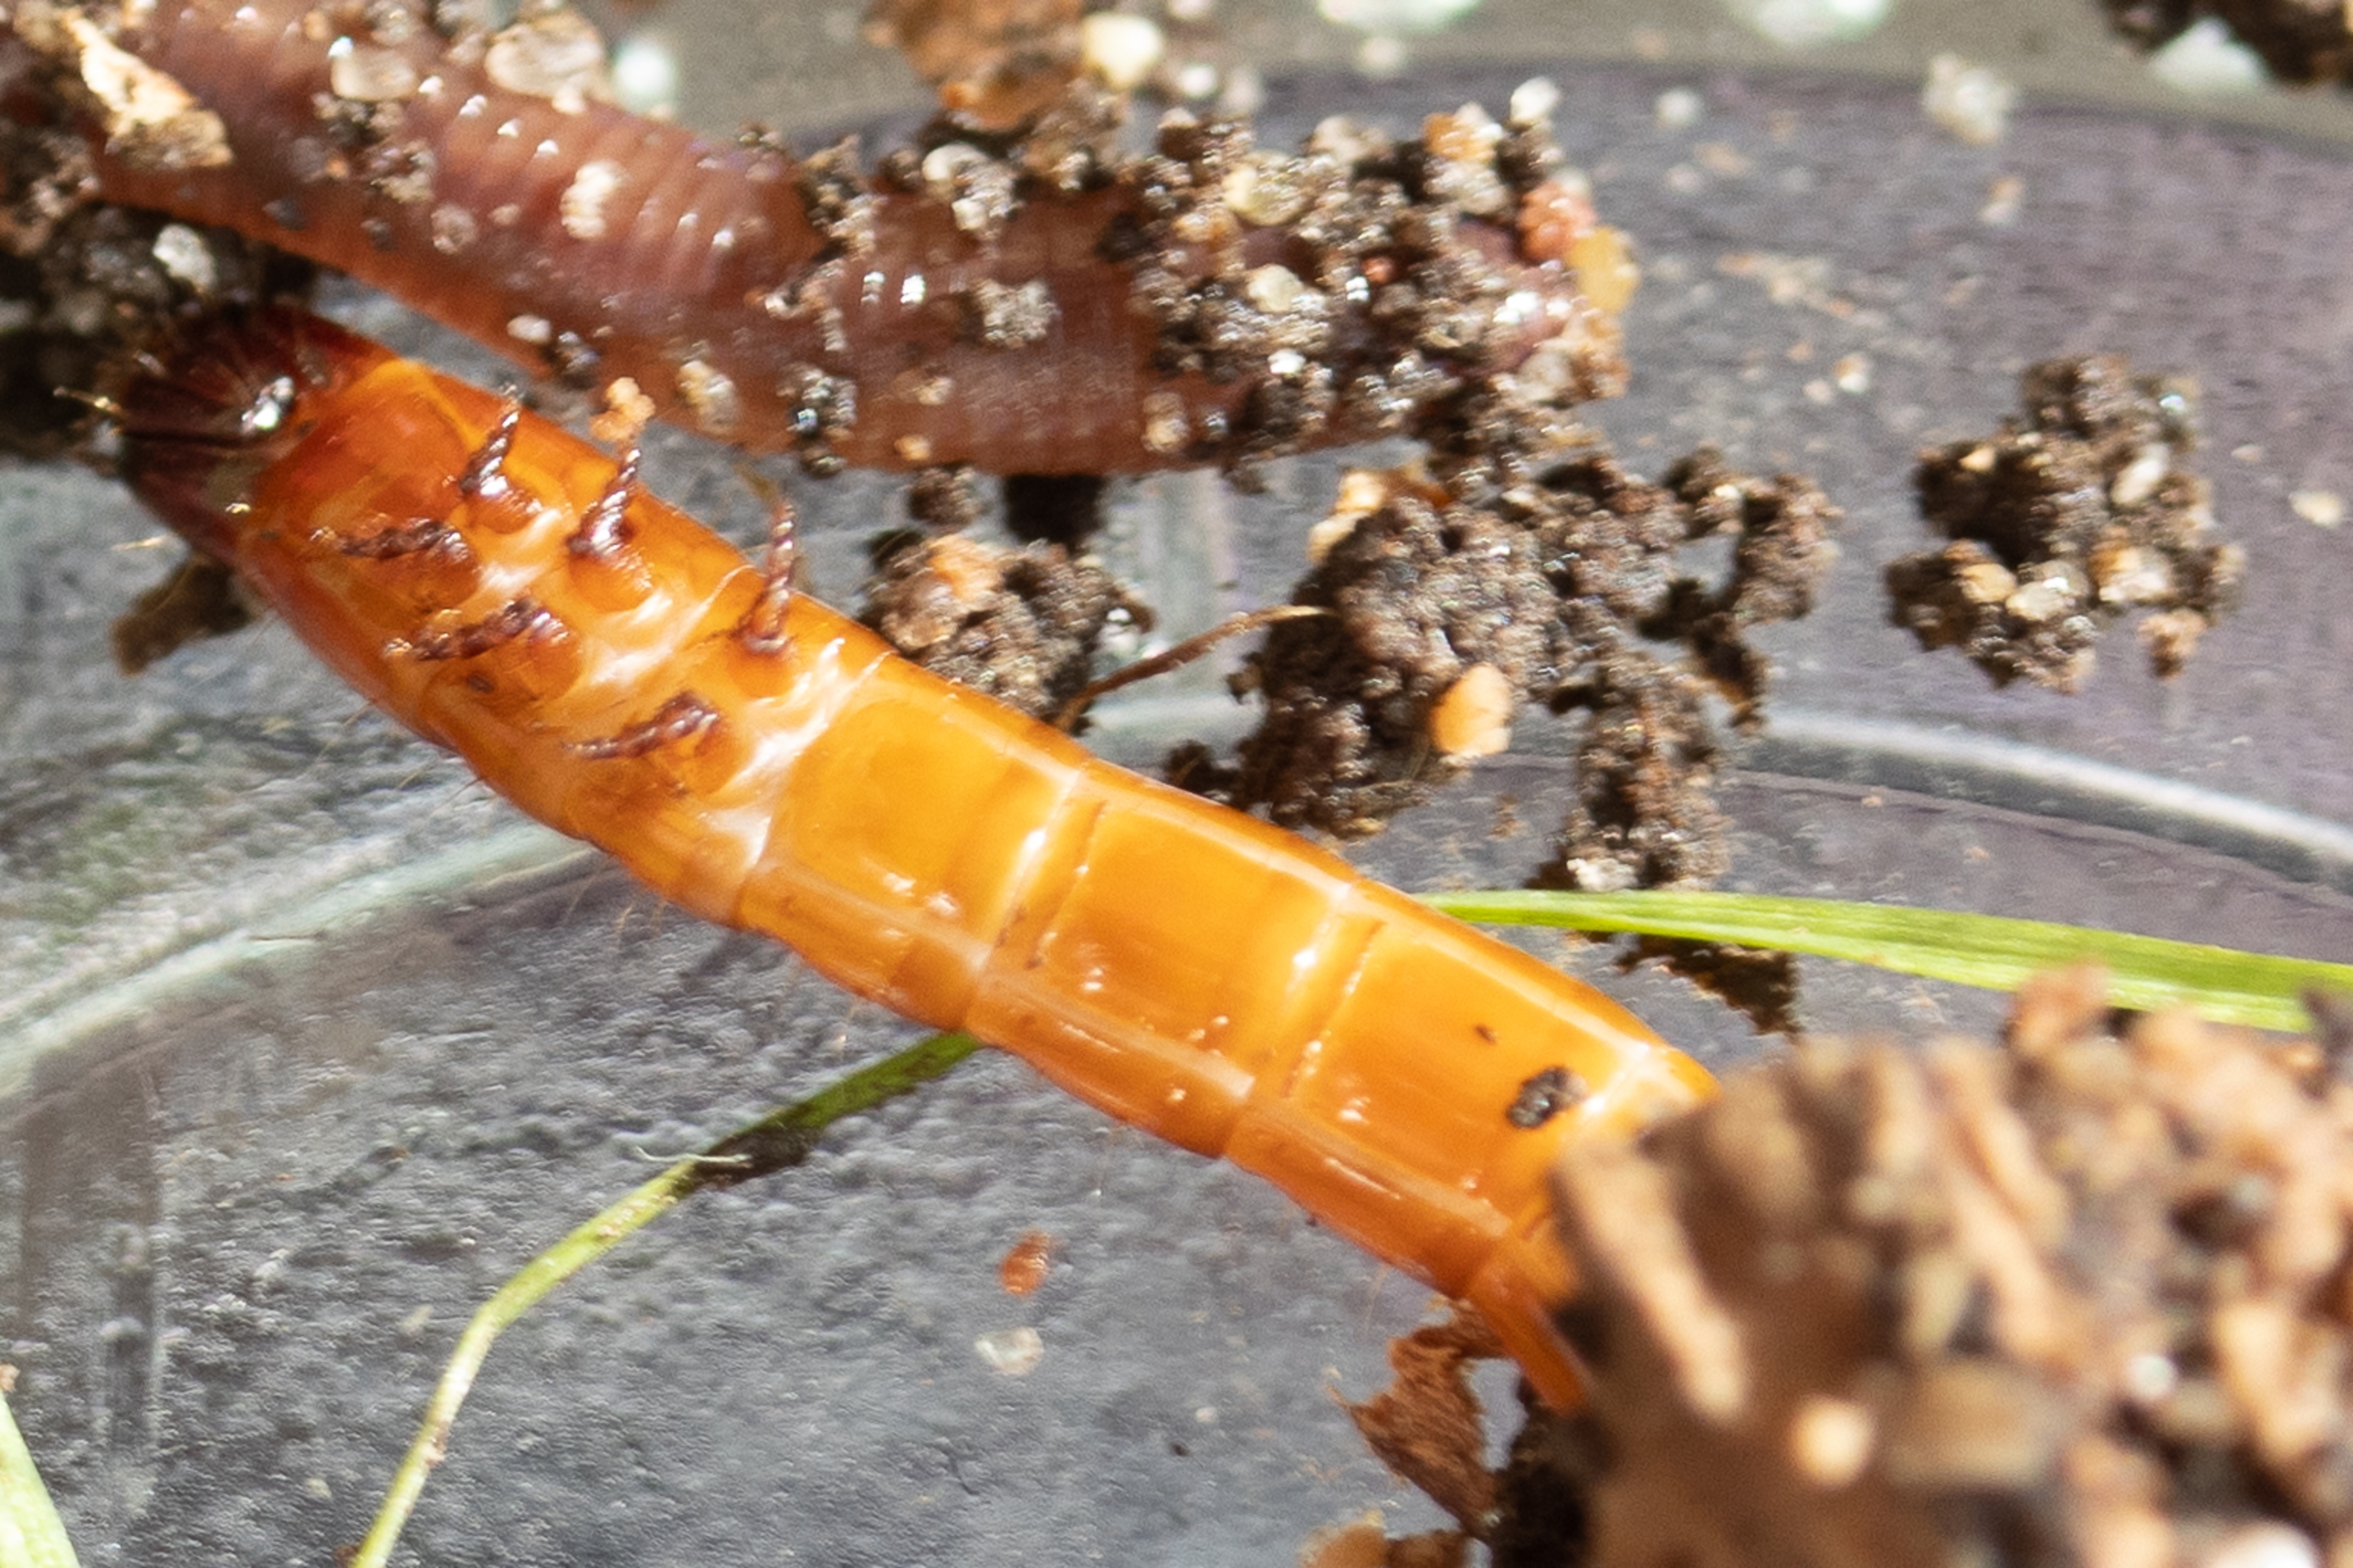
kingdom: Animalia
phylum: Arthropoda
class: Insecta
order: Coleoptera
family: Elateridae
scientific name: Elateridae
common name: Smældere
